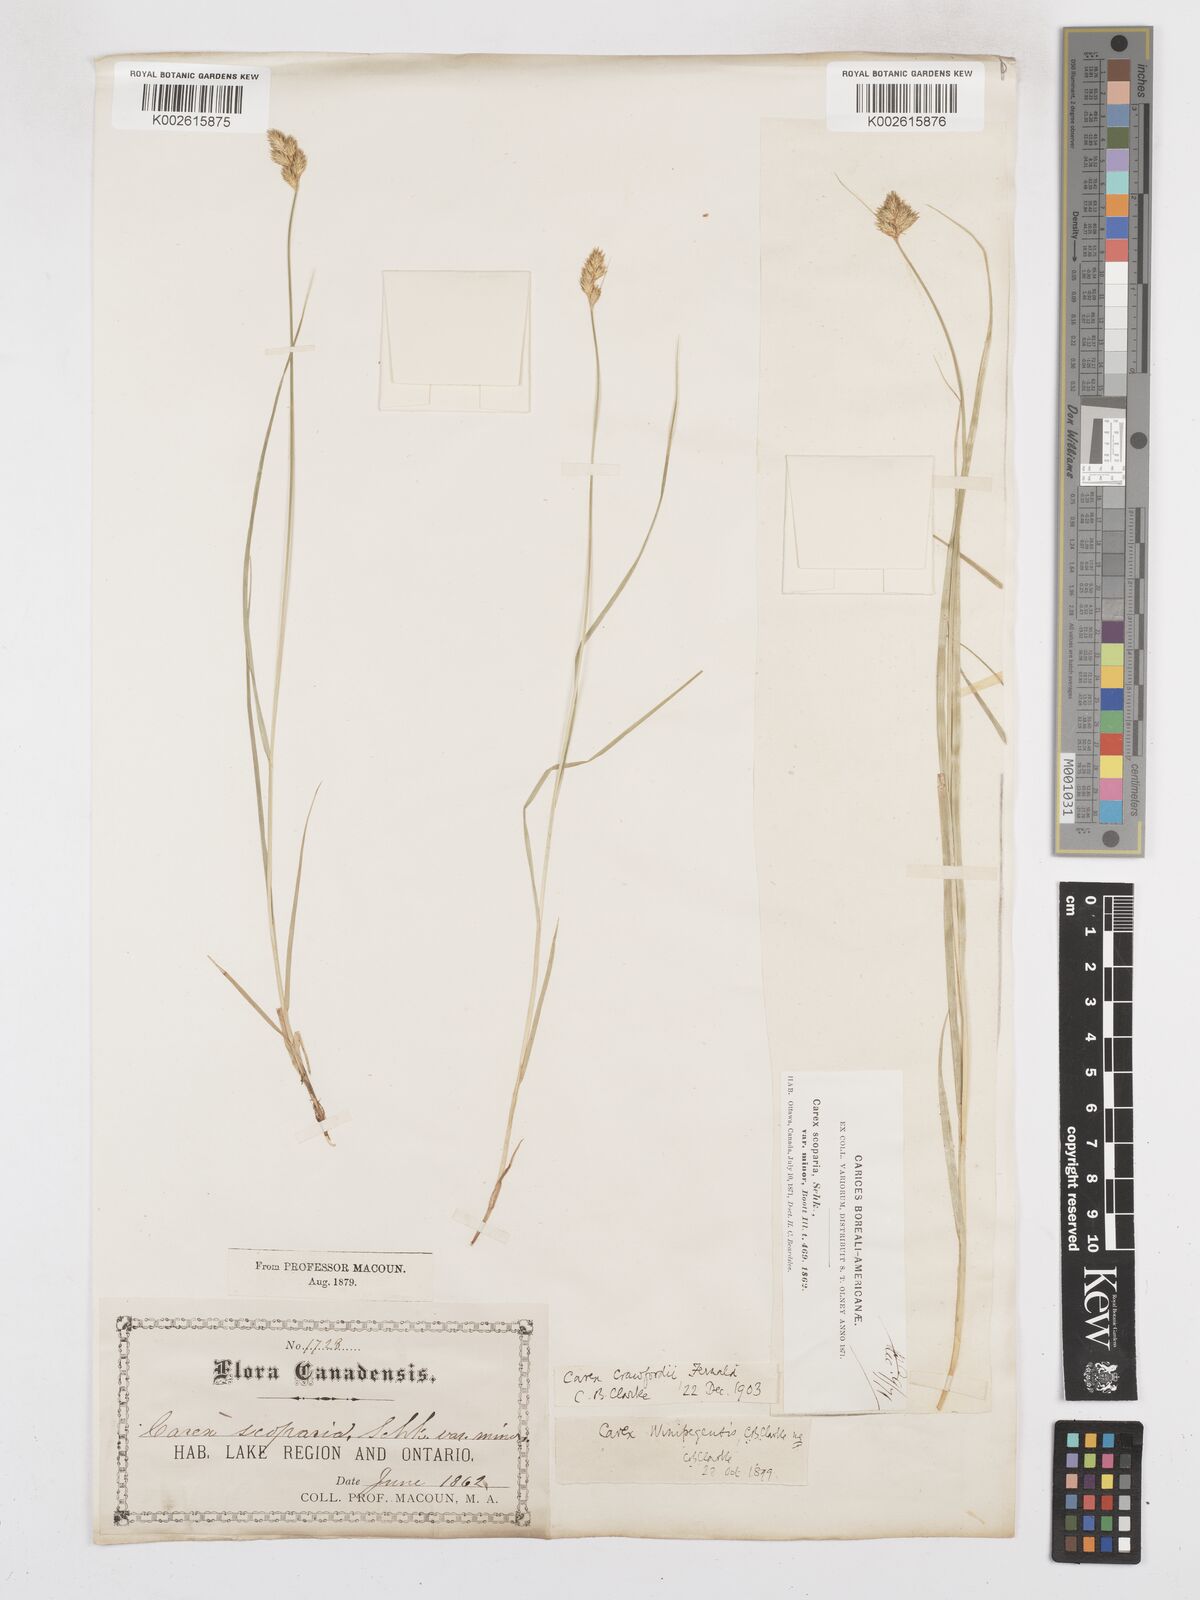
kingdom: Plantae
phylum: Tracheophyta
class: Liliopsida
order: Poales
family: Cyperaceae
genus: Carex
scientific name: Carex crawfordii
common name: Crawford's sedge
